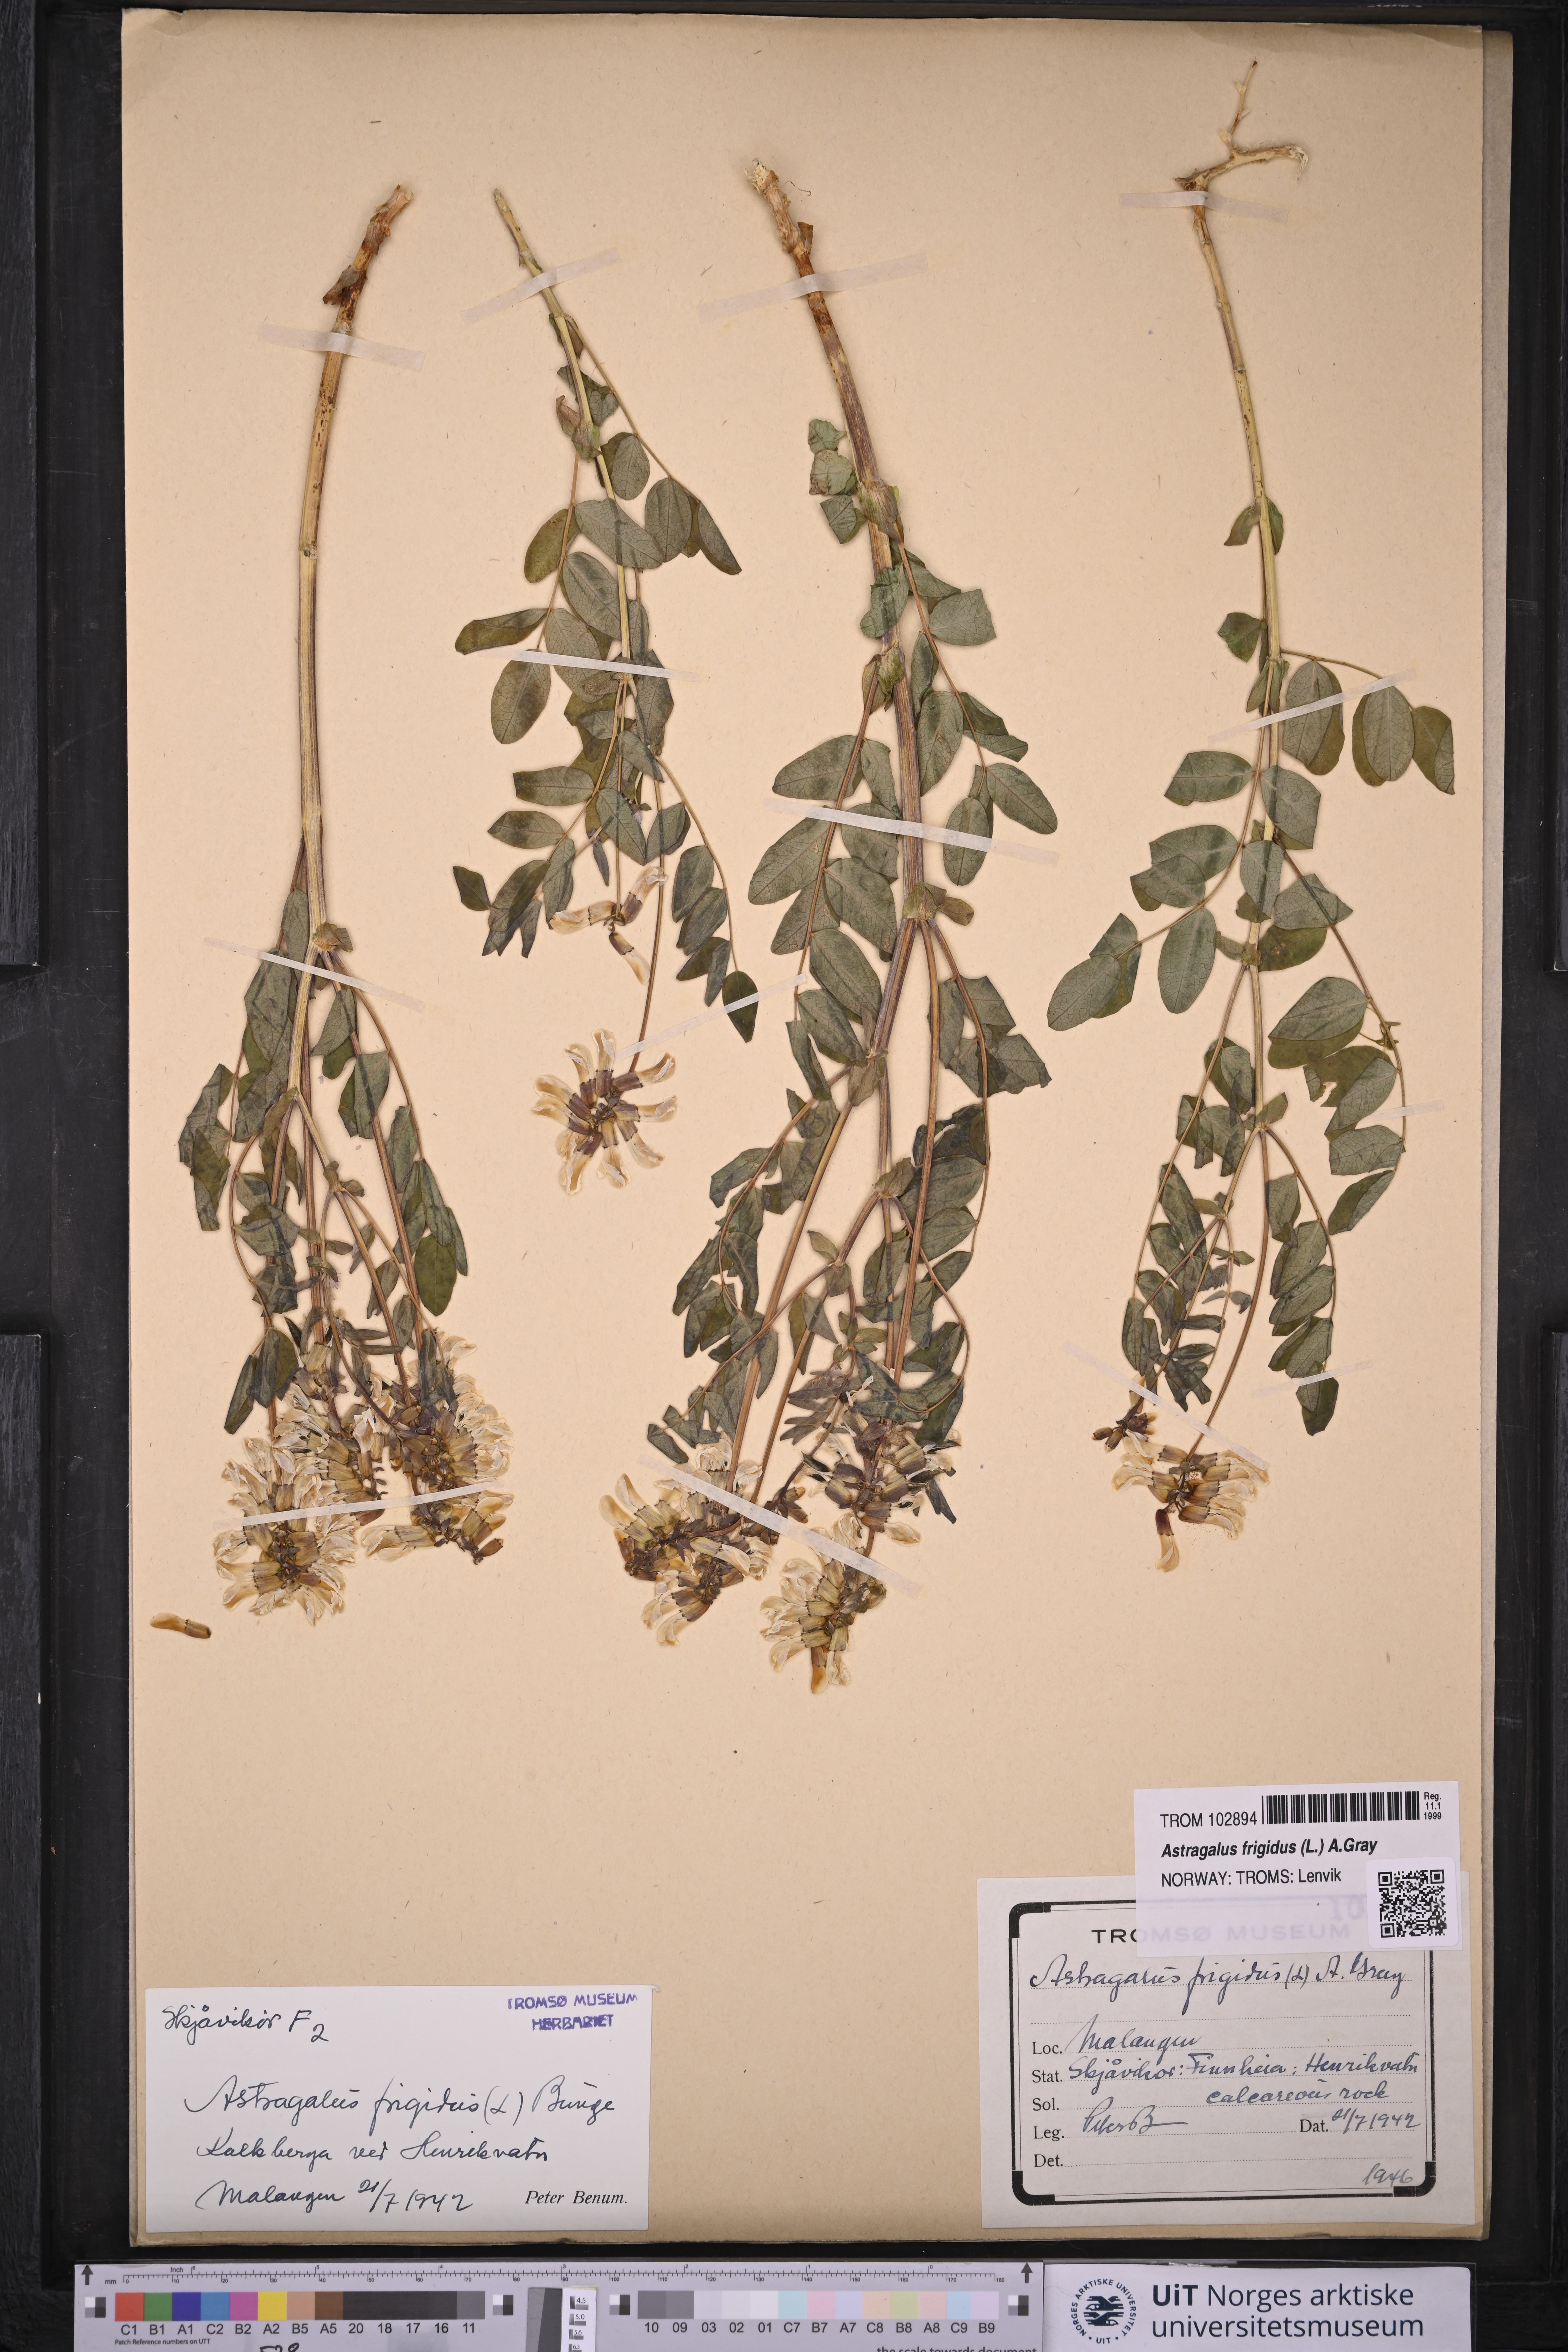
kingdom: Plantae
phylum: Tracheophyta
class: Magnoliopsida
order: Fabales
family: Fabaceae
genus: Astragalus
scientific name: Astragalus frigidus
